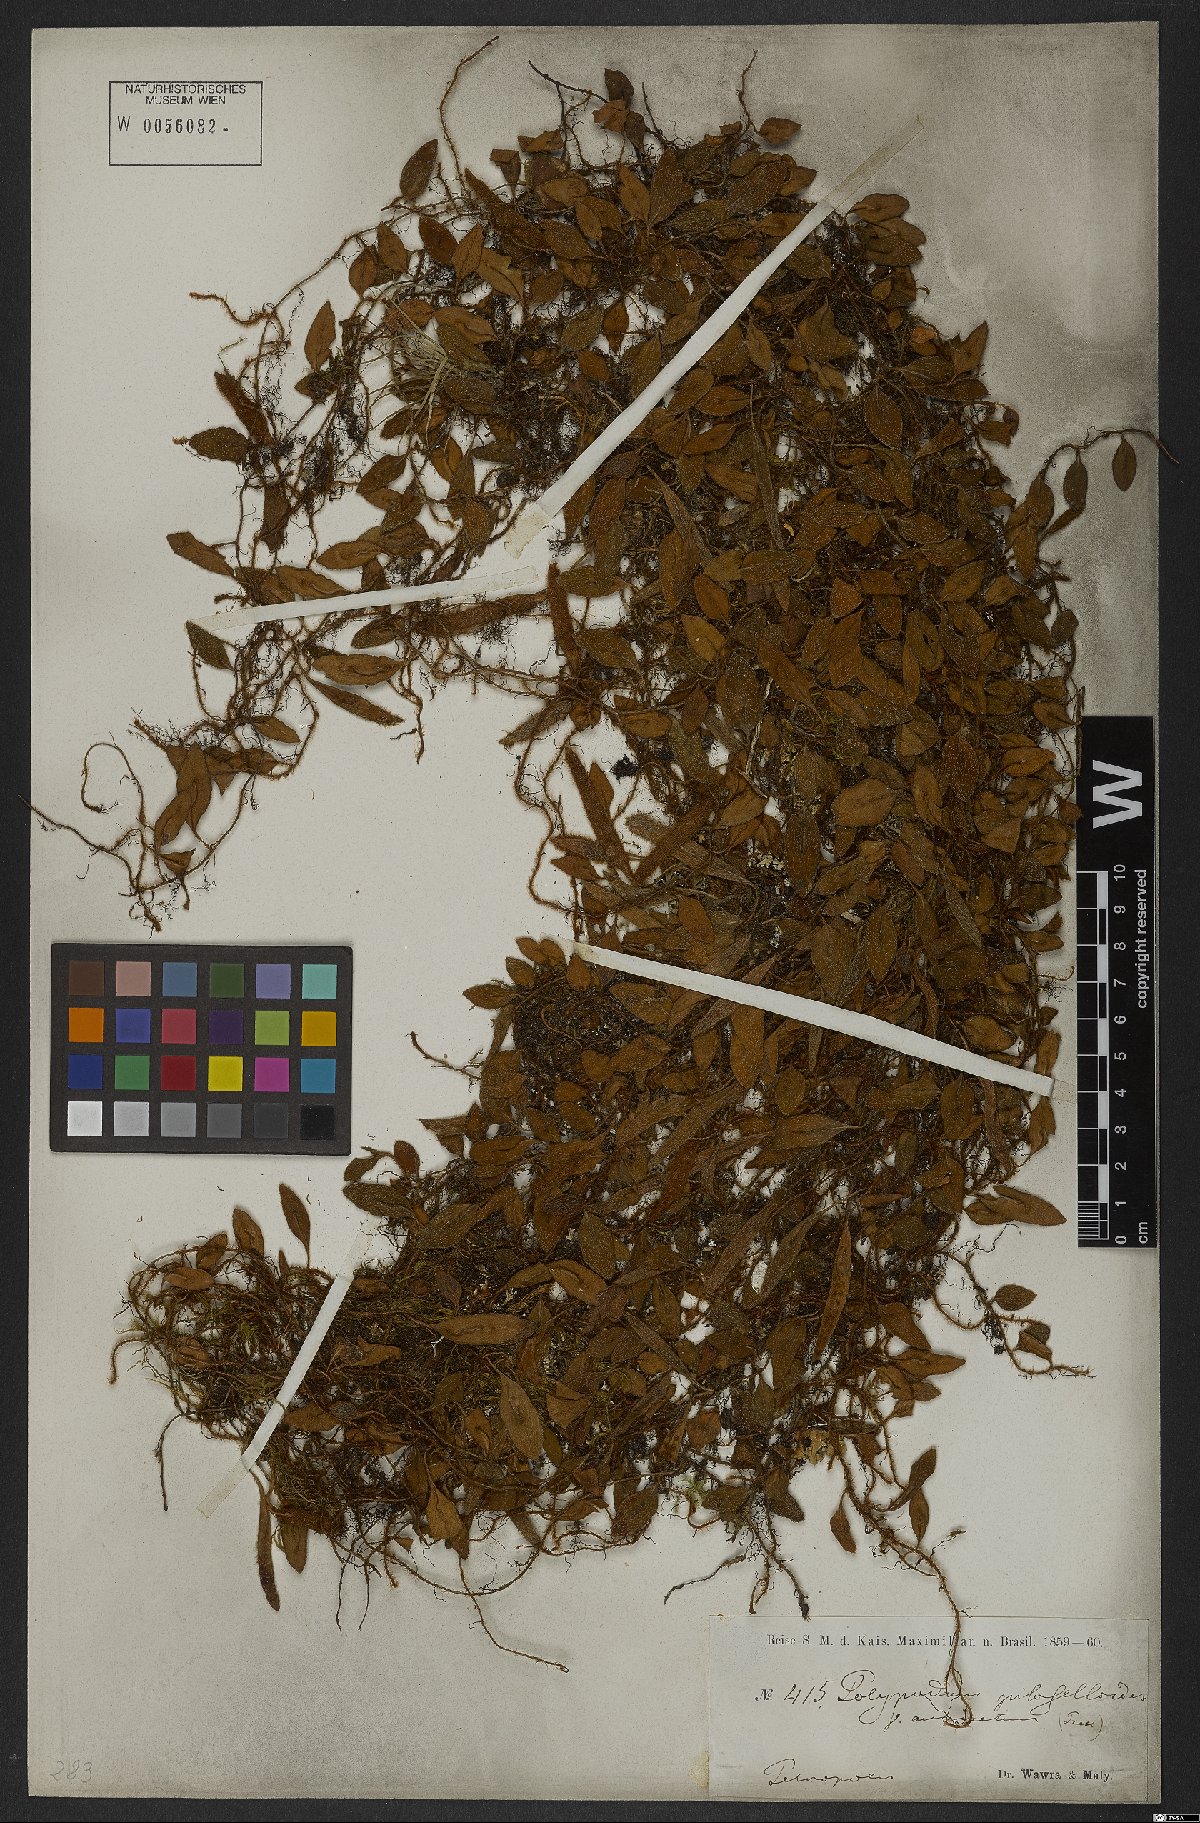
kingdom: Plantae
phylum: Tracheophyta
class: Polypodiopsida
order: Polypodiales
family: Polypodiaceae
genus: Microgramma
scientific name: Microgramma tecta
